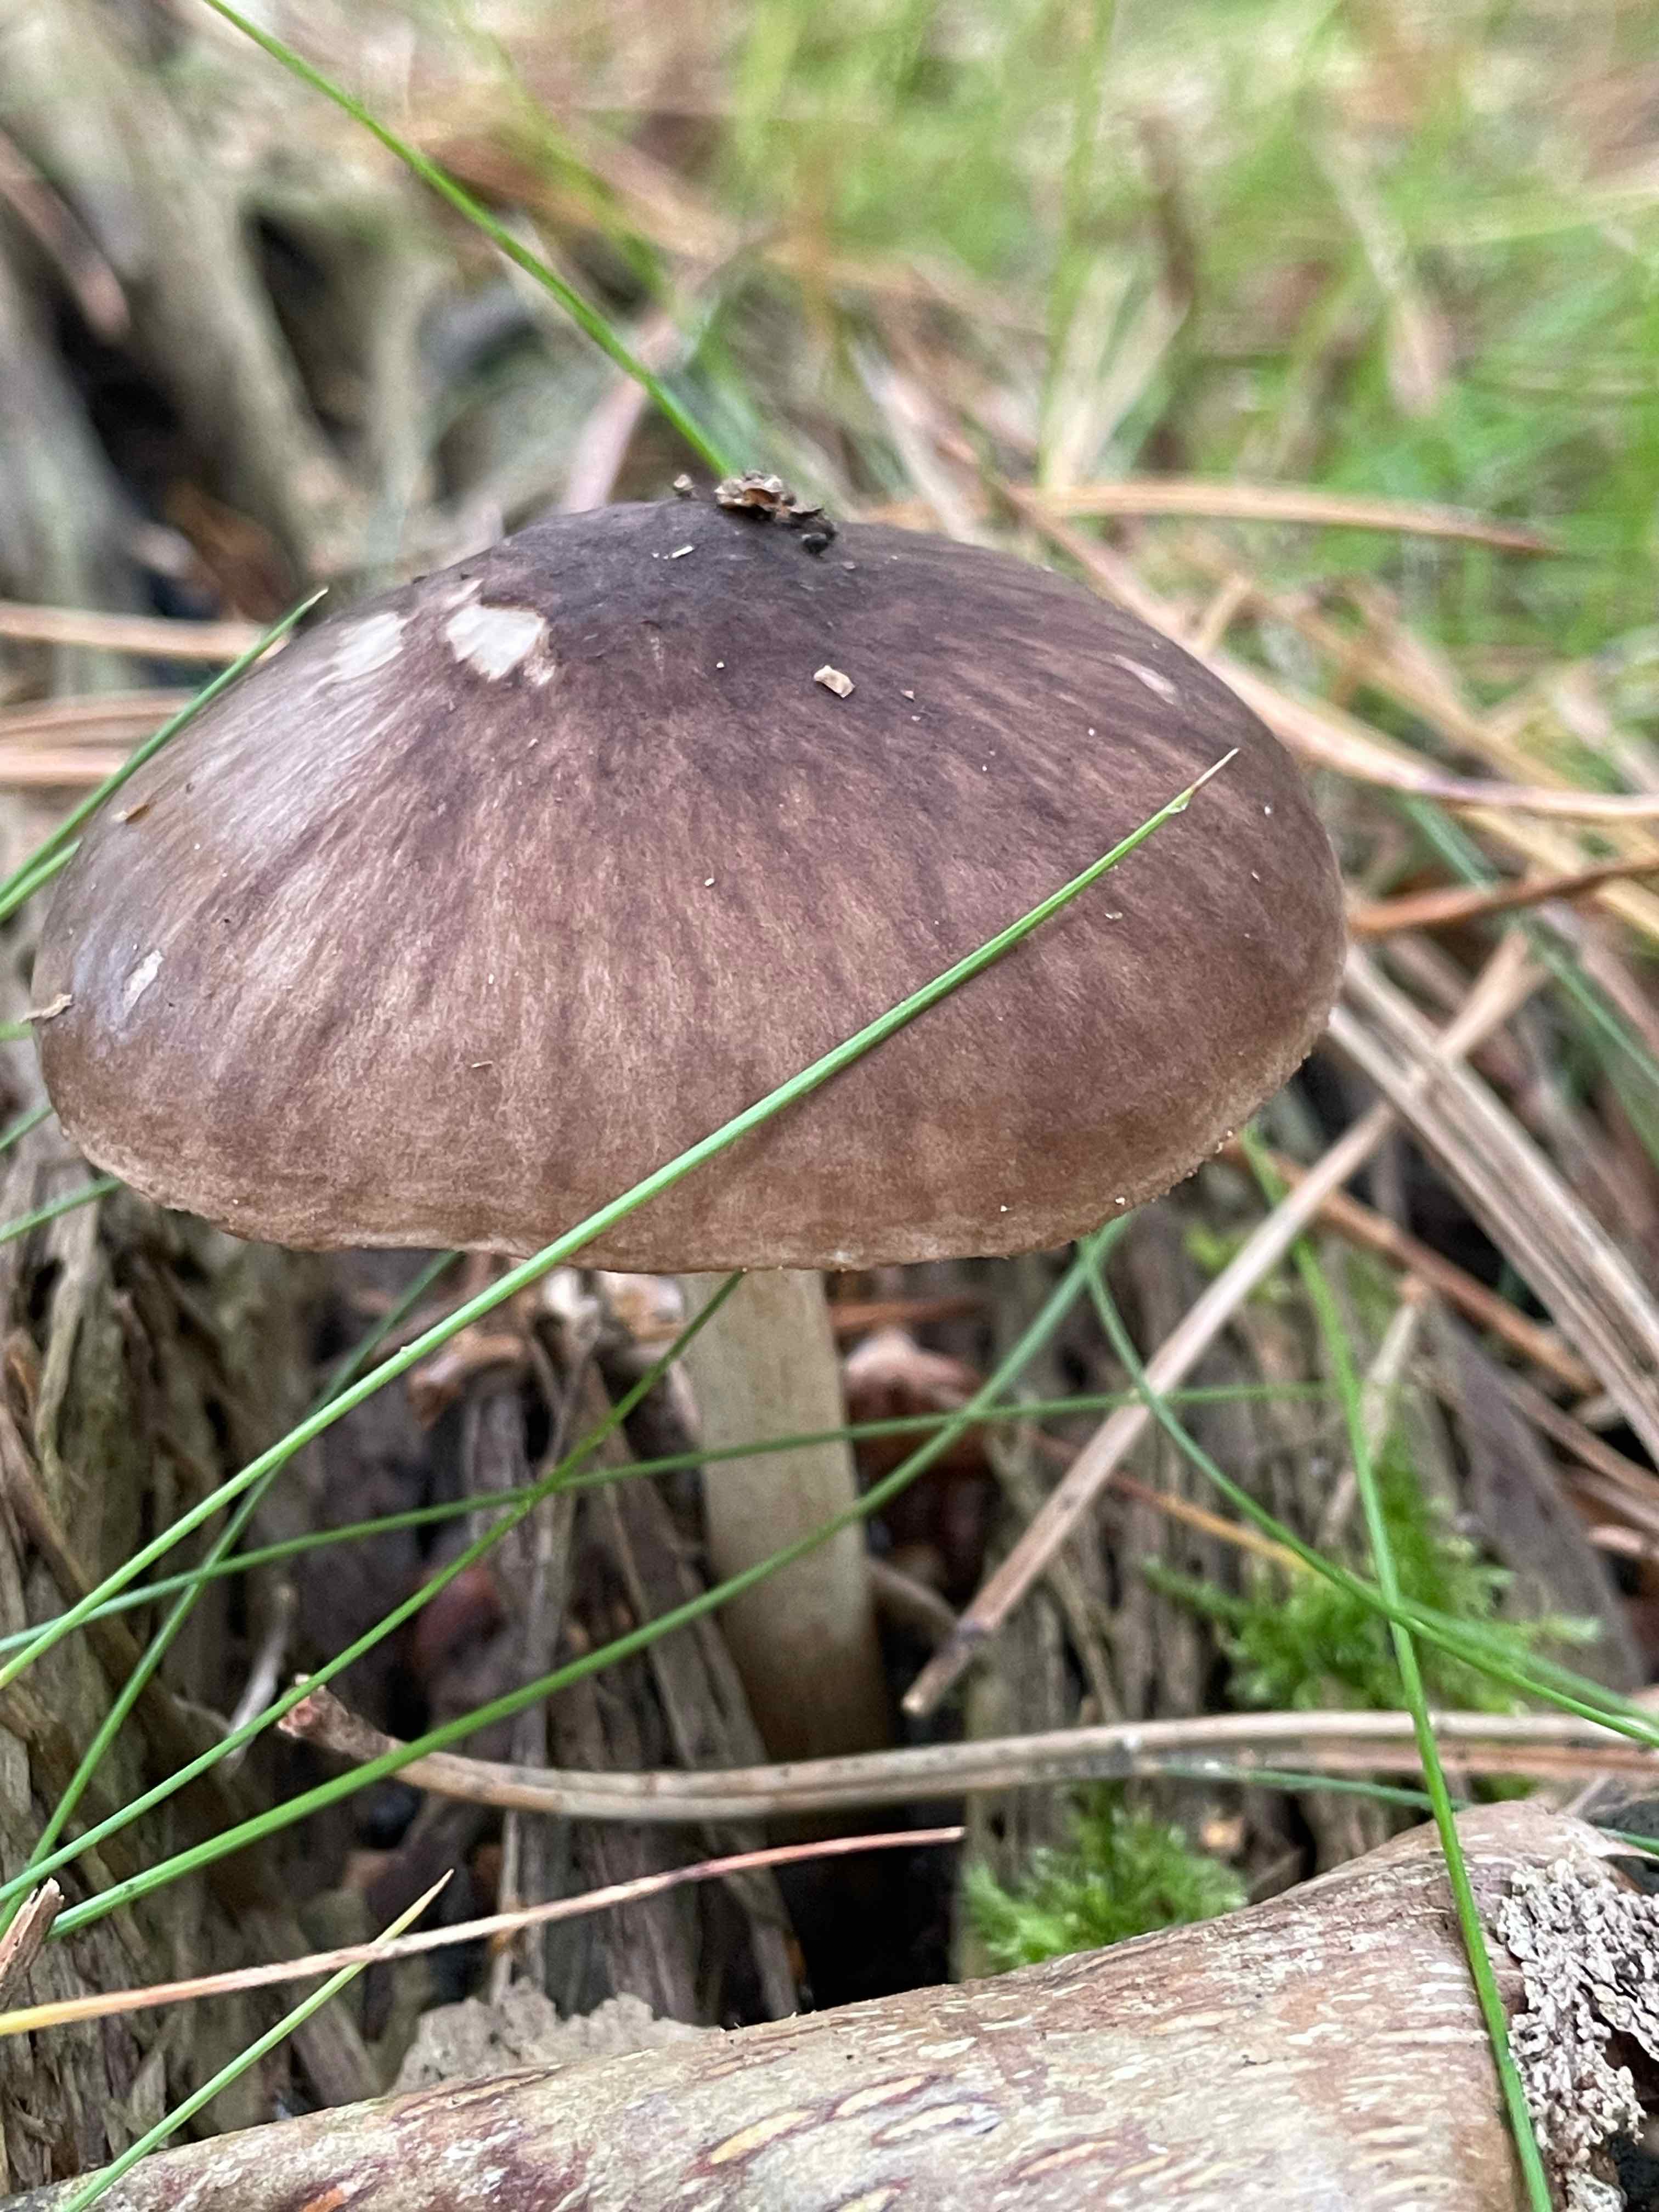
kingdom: Fungi
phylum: Basidiomycota
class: Agaricomycetes
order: Agaricales
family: Pluteaceae
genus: Pluteus
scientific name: Pluteus cervinus
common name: sodfarvet skærmhat
